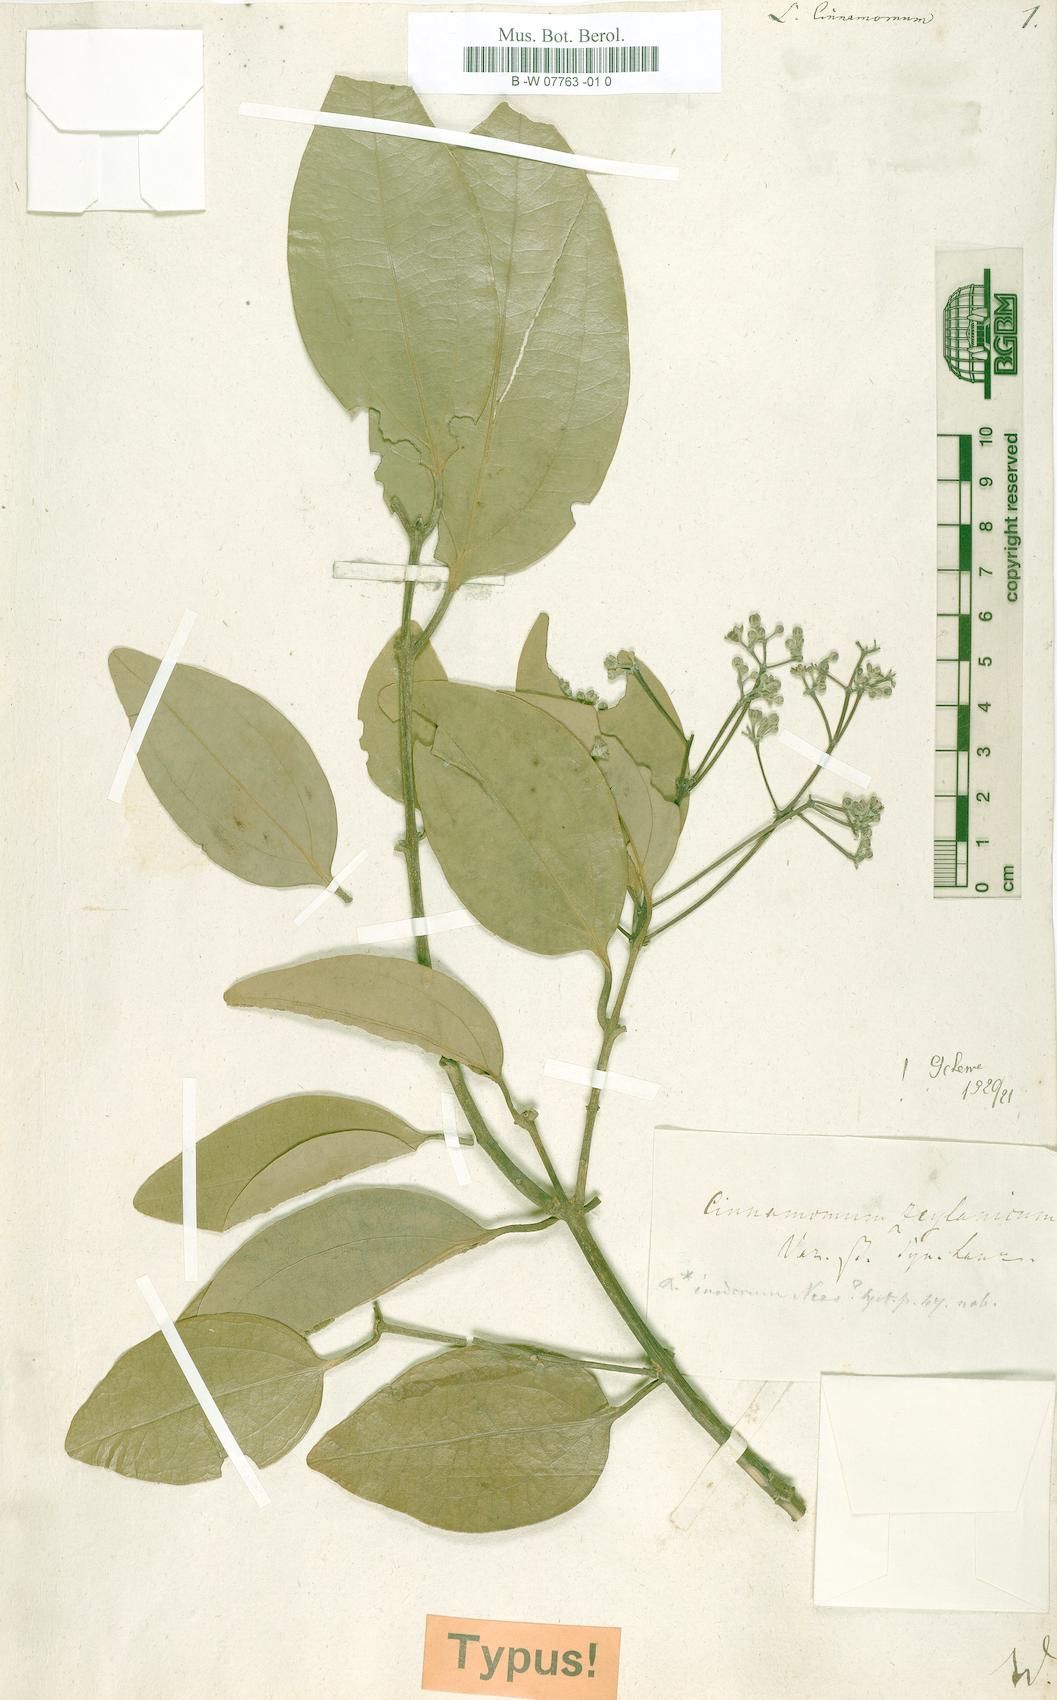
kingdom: Plantae
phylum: Tracheophyta
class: Magnoliopsida
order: Laurales
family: Lauraceae
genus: Cinnamomum
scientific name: Cinnamomum verum
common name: Cinnamon
